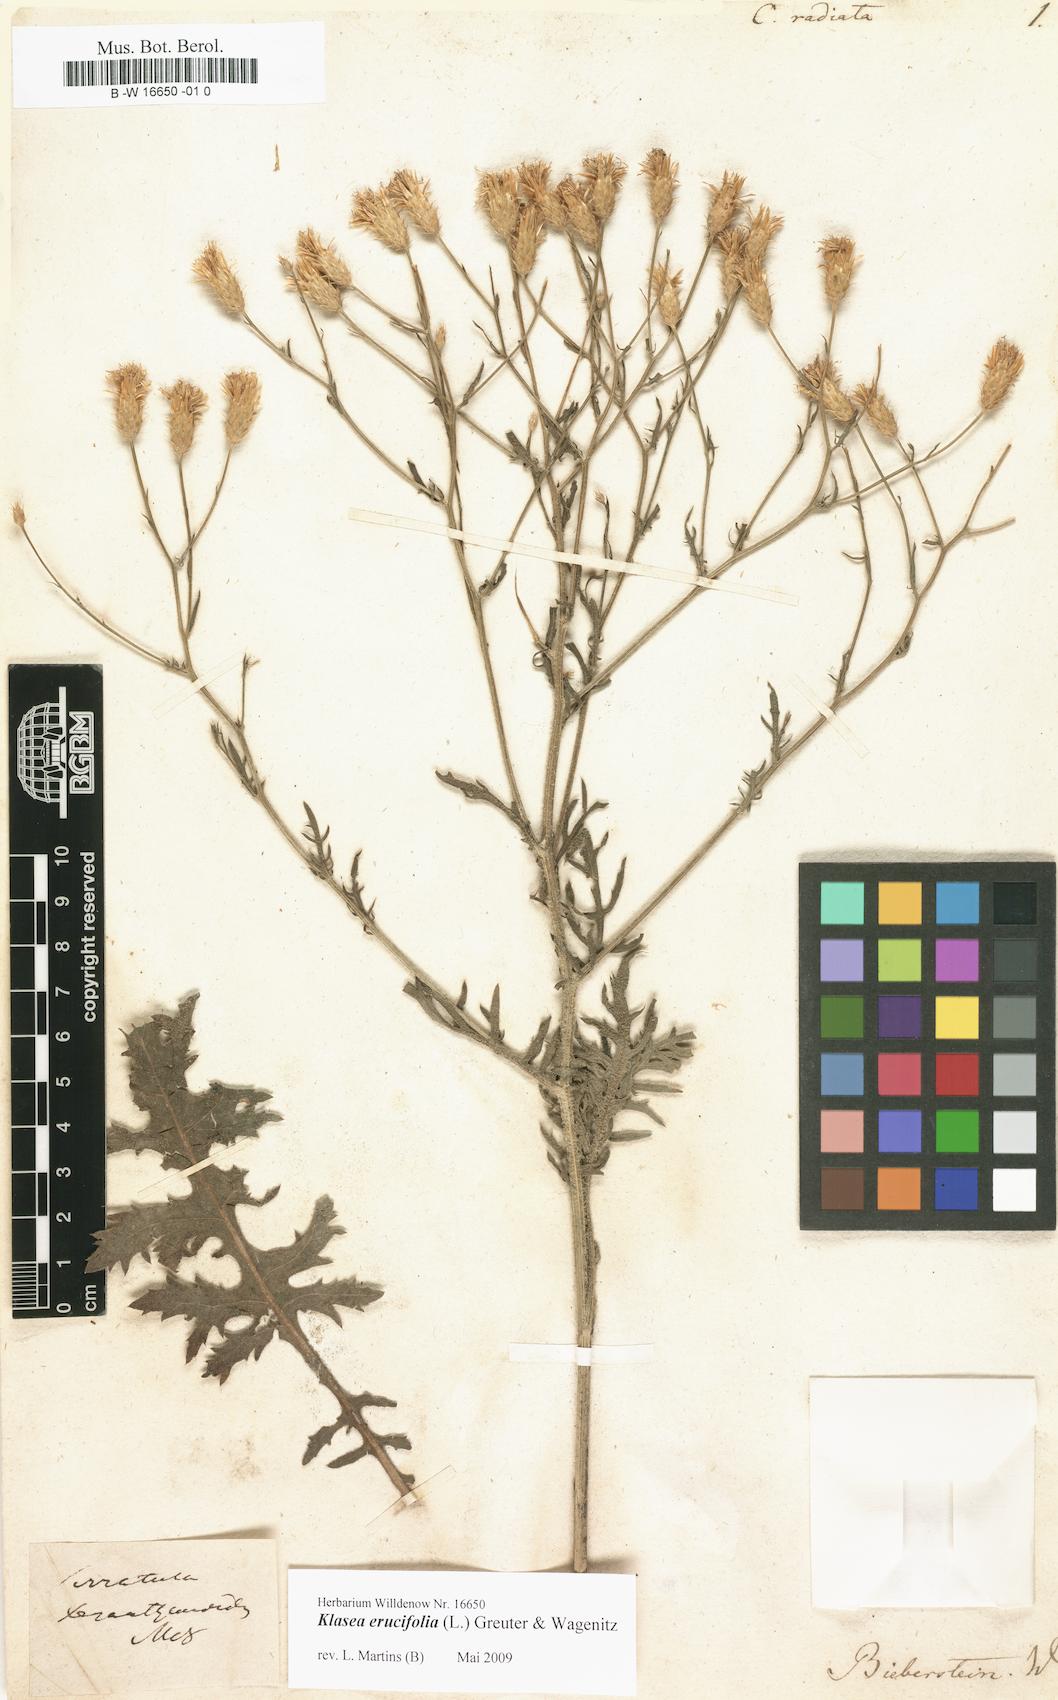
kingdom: Plantae
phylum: Tracheophyta
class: Magnoliopsida
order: Asterales
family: Asteraceae
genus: Klasea
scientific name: Klasea erucifolia
